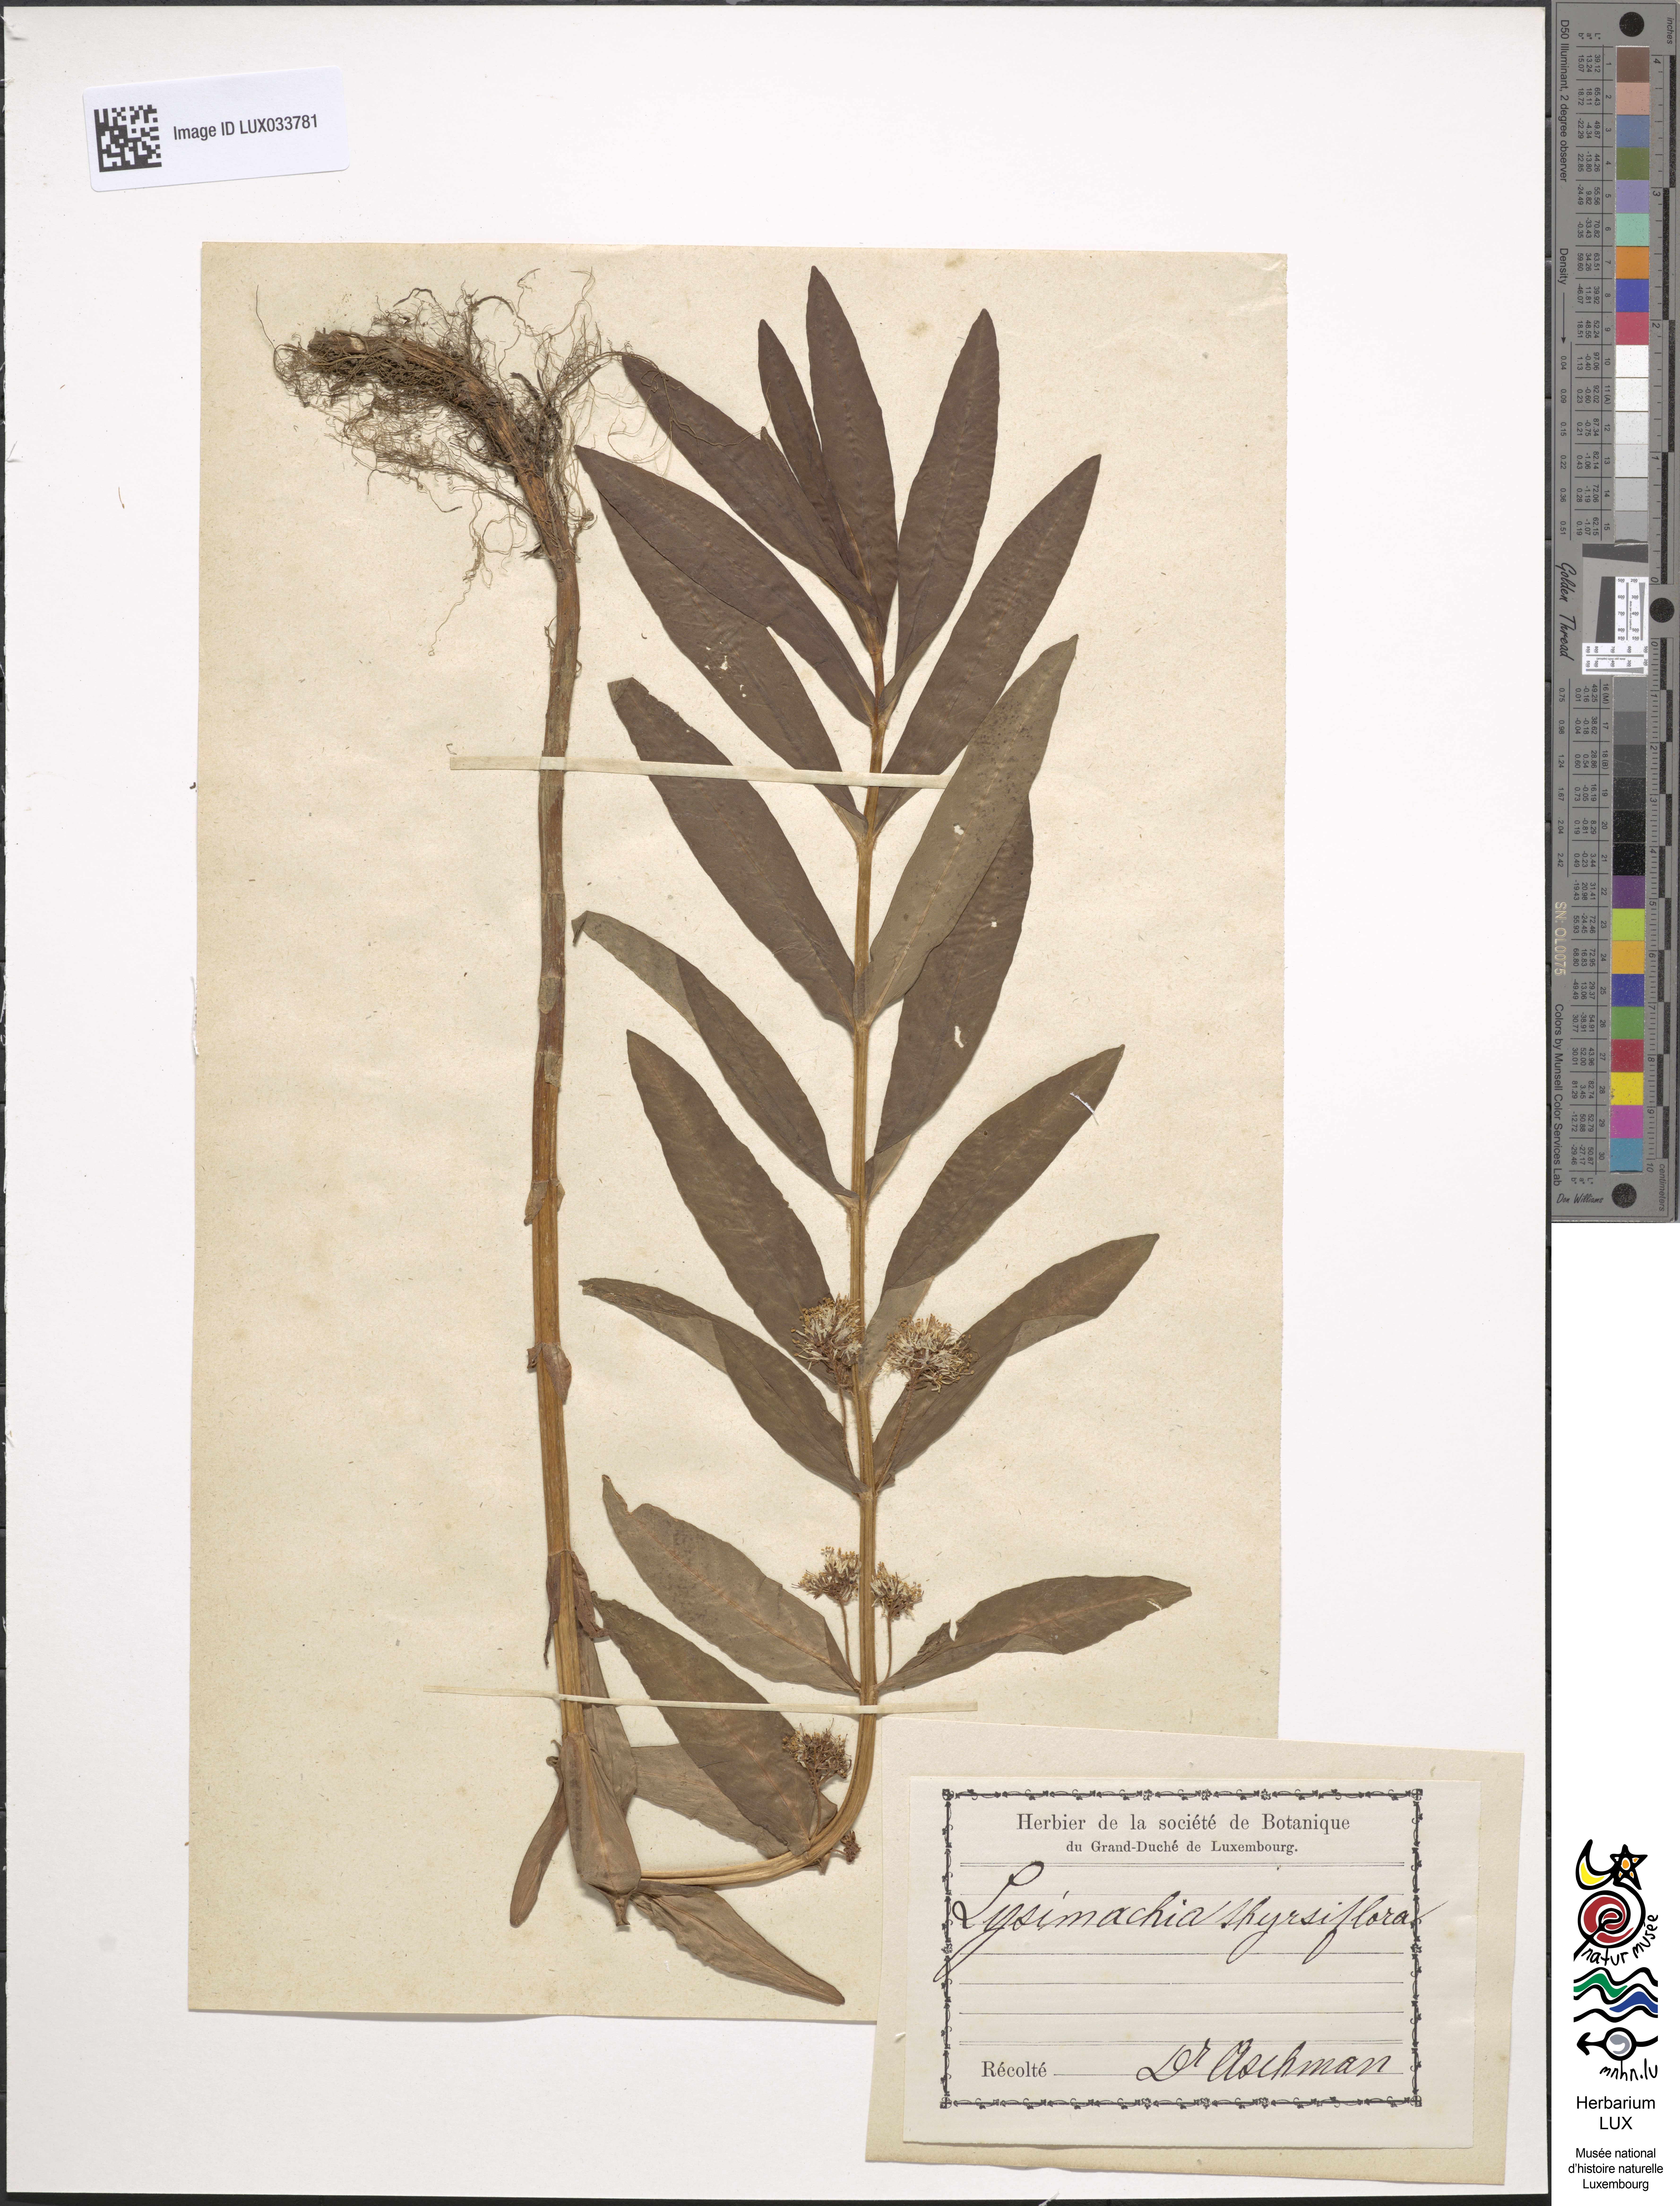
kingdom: Plantae
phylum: Tracheophyta
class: Magnoliopsida
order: Ericales
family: Primulaceae
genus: Lysimachia
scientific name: Lysimachia thyrsiflora
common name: Tufted loosestrife
